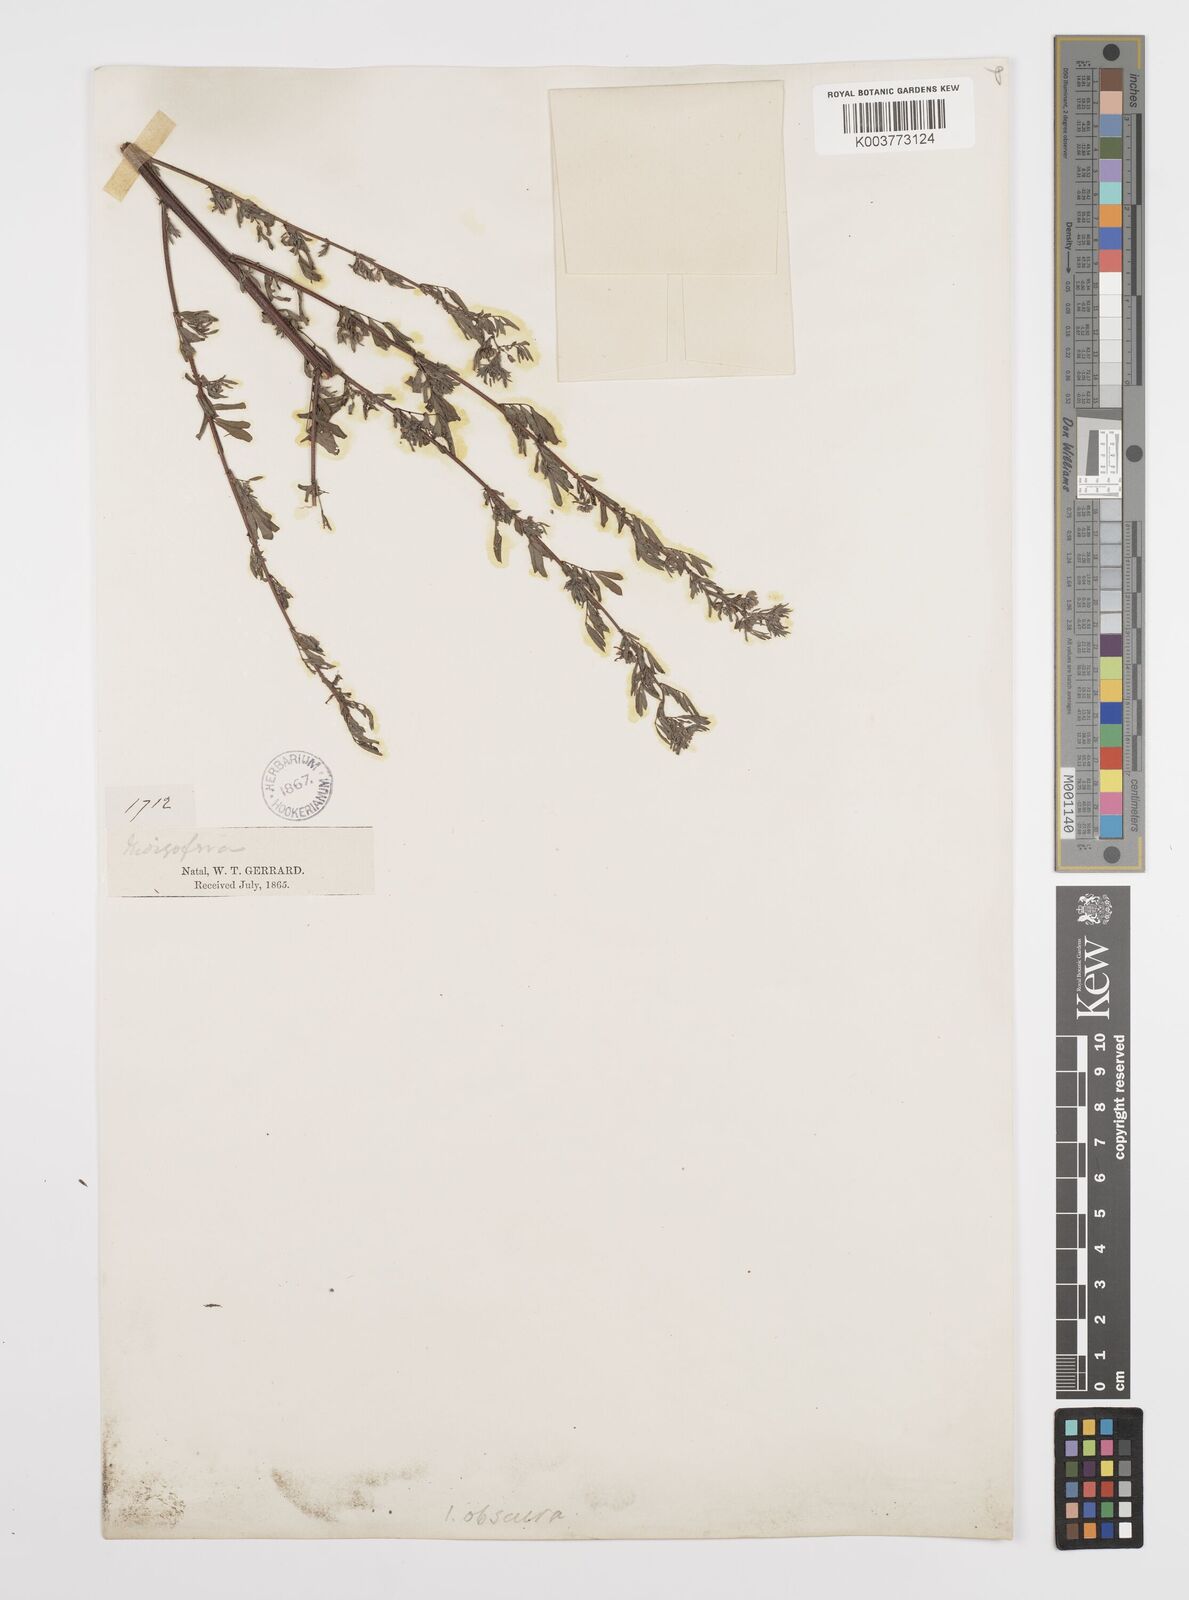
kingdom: Plantae
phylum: Tracheophyta
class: Magnoliopsida
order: Fabales
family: Fabaceae
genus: Indigofera
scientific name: Indigofera
